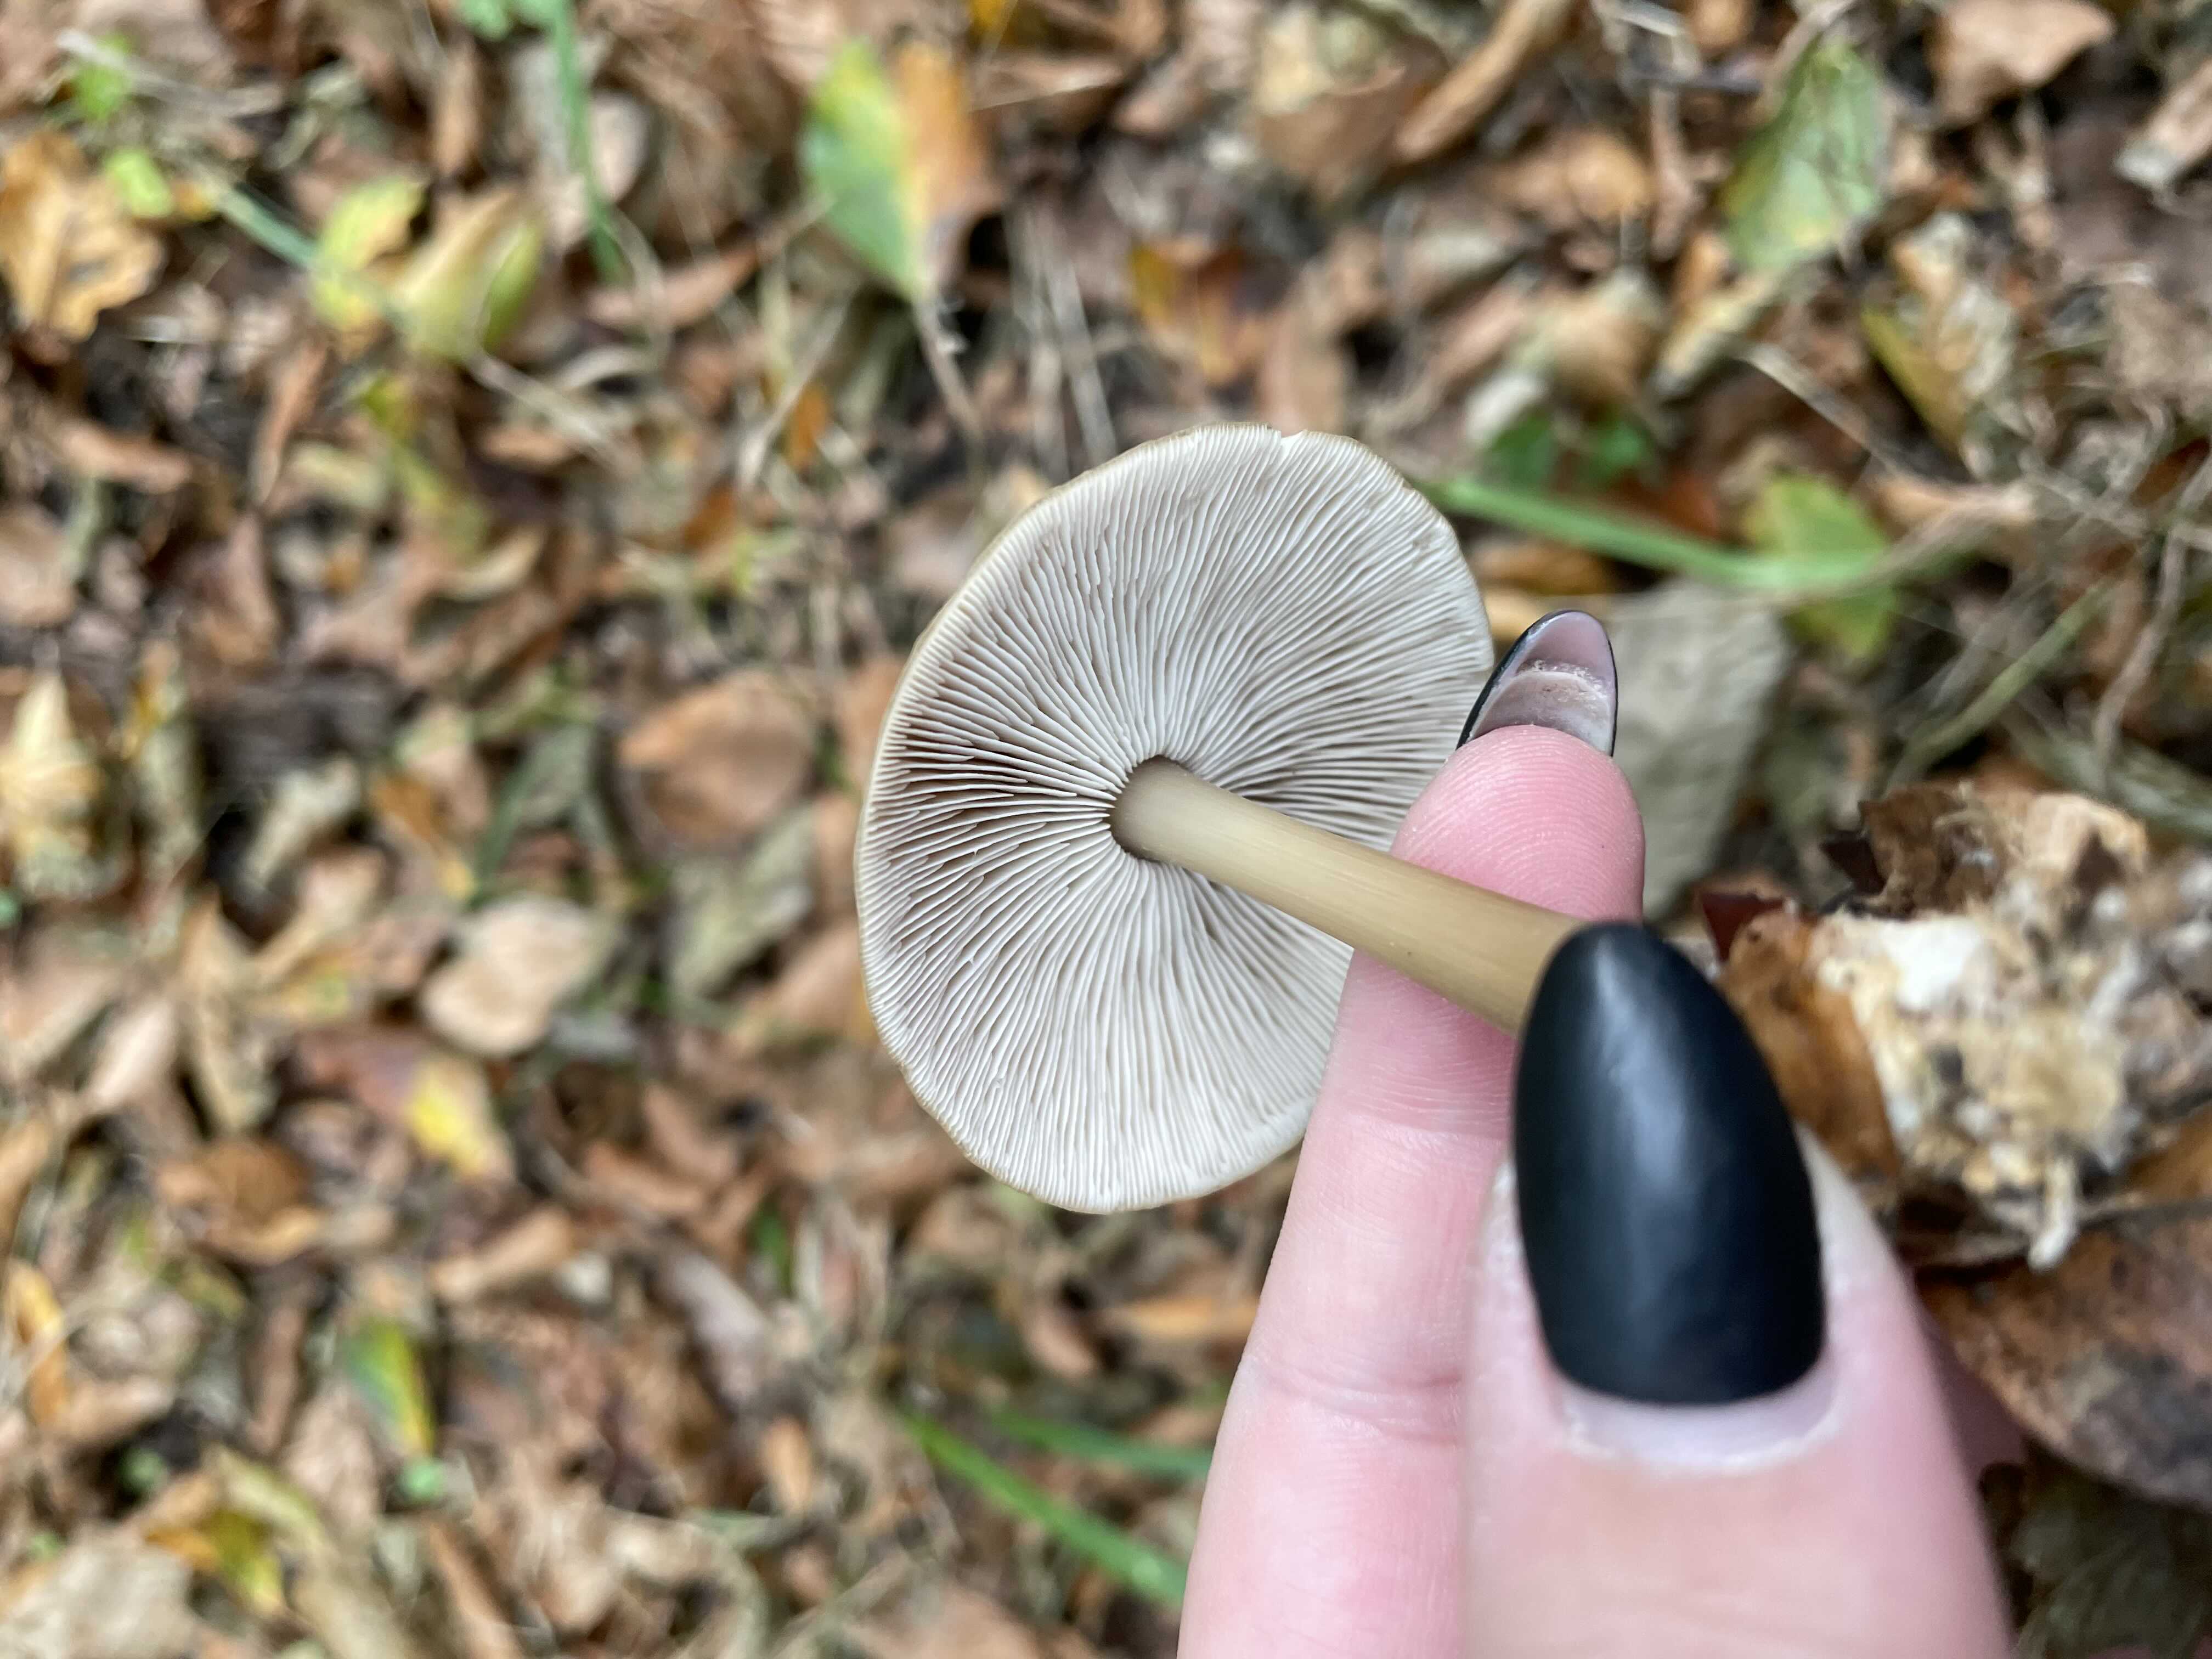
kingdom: Fungi
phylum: Basidiomycota
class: Agaricomycetes
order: Agaricales
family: Omphalotaceae
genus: Rhodocollybia
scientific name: Rhodocollybia asema
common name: horngrå fladhat
